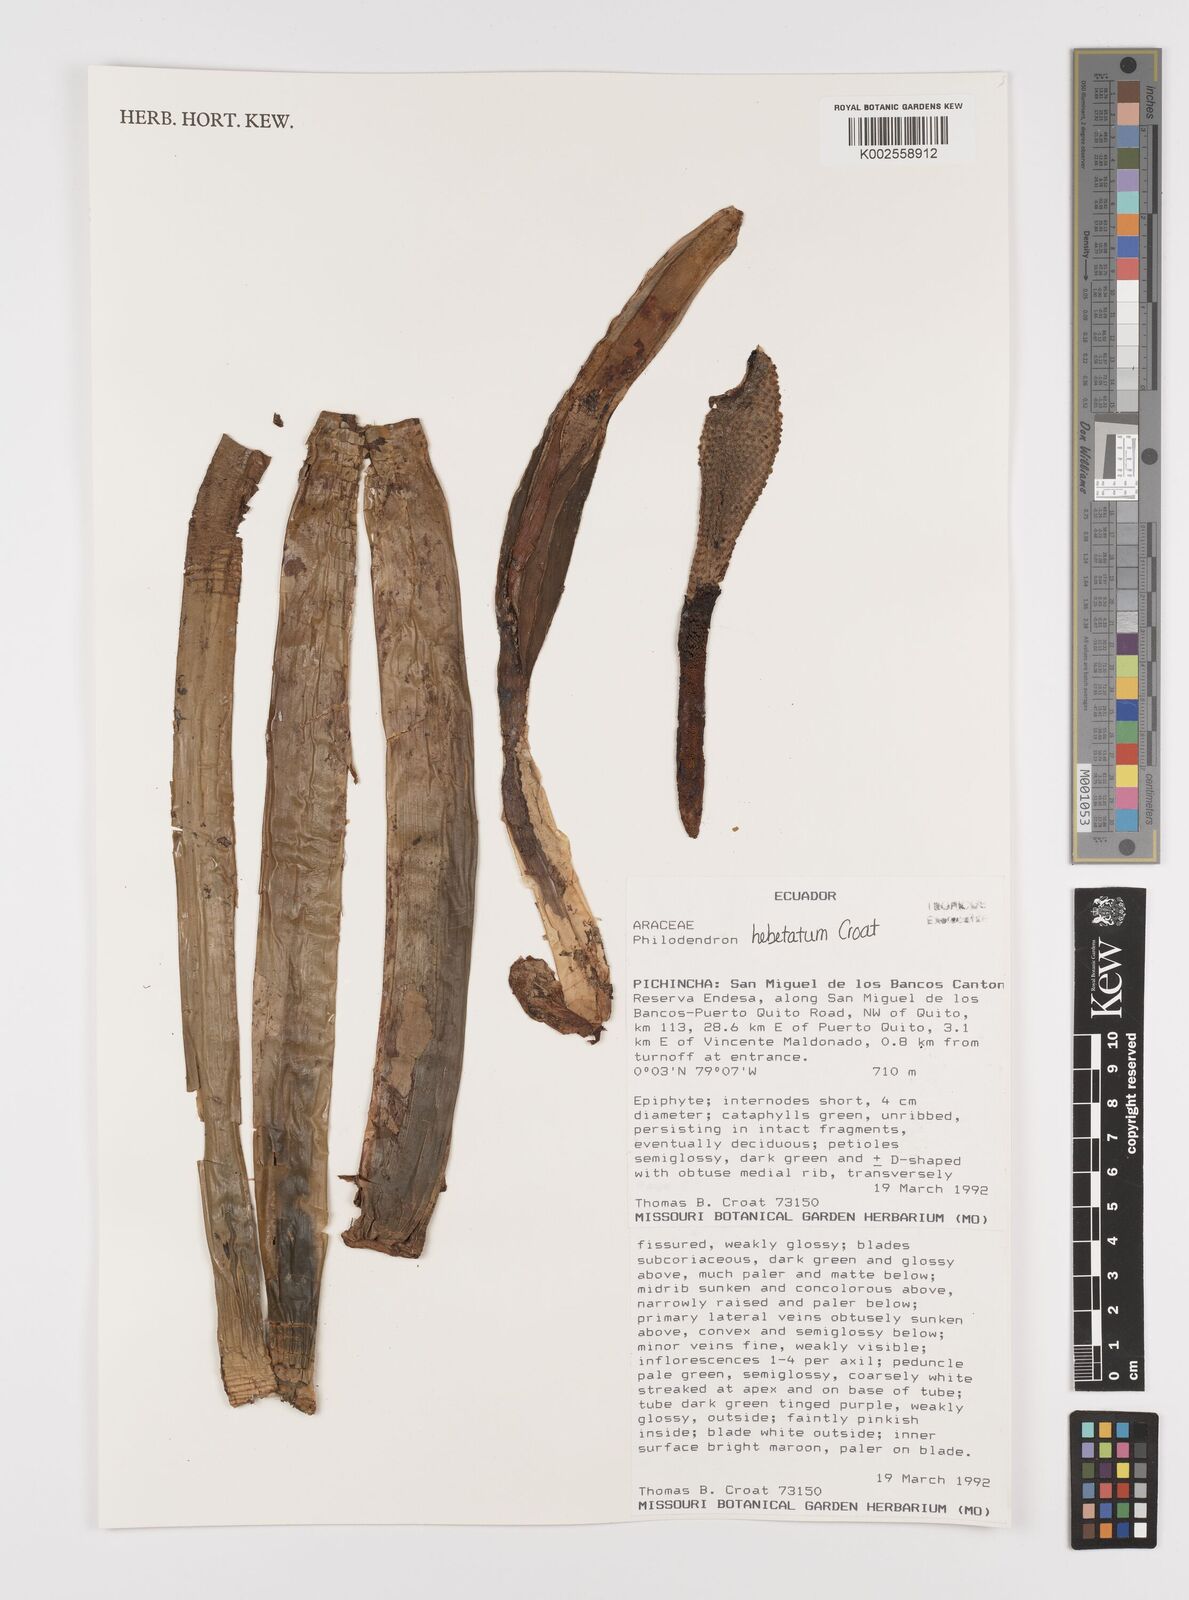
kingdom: Plantae
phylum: Tracheophyta
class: Liliopsida
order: Alismatales
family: Araceae
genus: Philodendron
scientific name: Philodendron hebetatum
